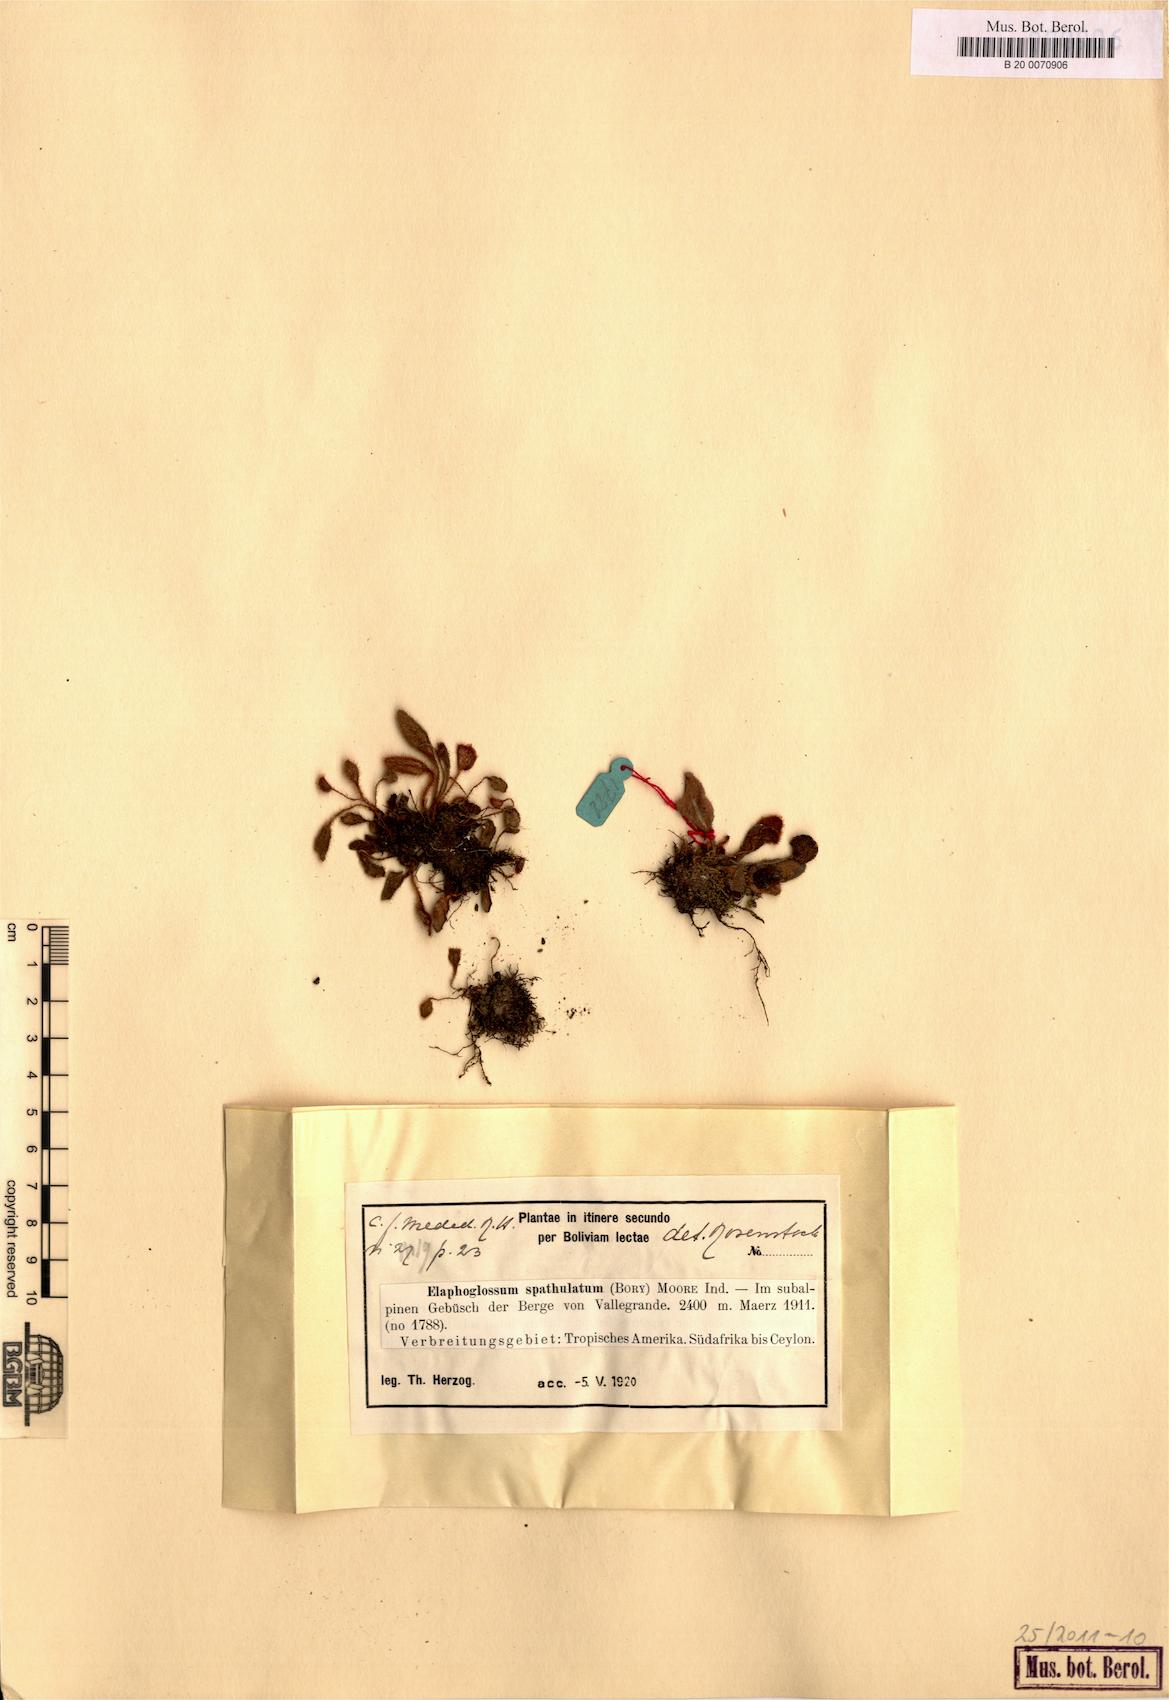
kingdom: Plantae
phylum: Tracheophyta
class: Polypodiopsida
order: Polypodiales
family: Dryopteridaceae
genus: Elaphoglossum
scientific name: Elaphoglossum piloselloides
